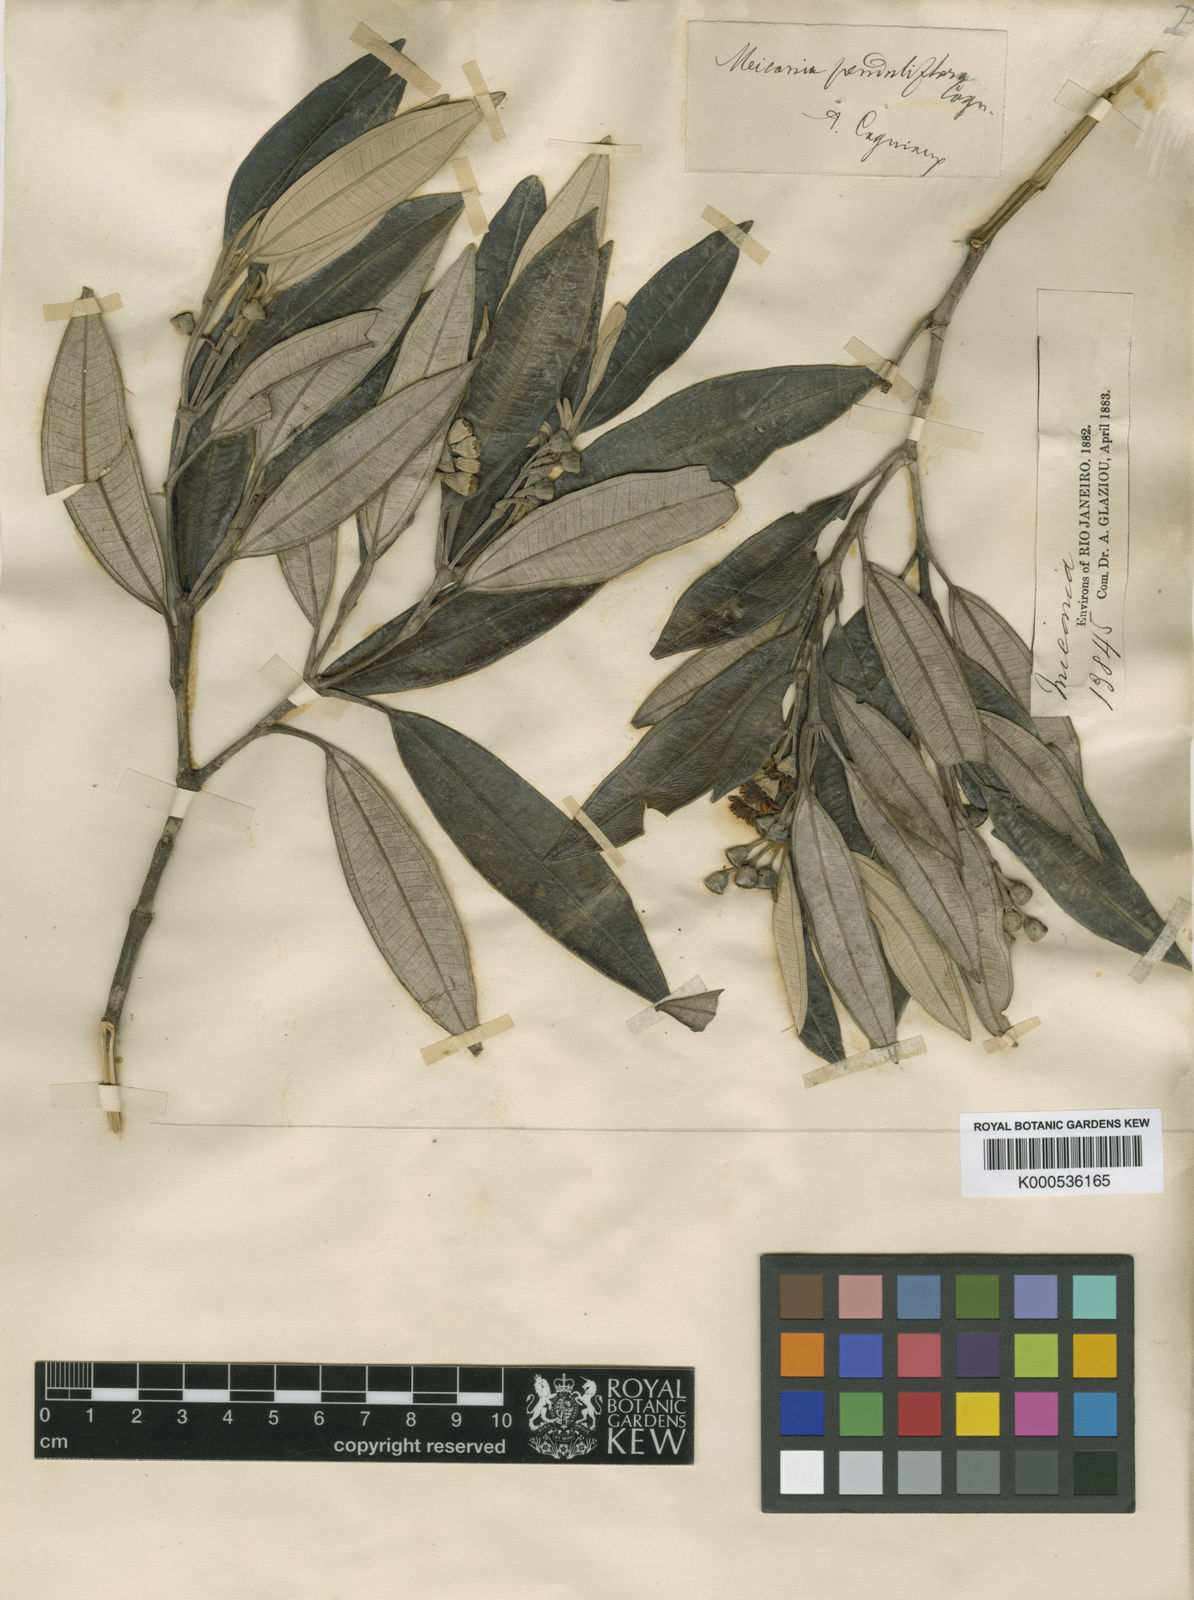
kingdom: Plantae
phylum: Tracheophyta
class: Magnoliopsida
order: Myrtales
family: Melastomataceae
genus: Miconia
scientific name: Miconia penduliflora
